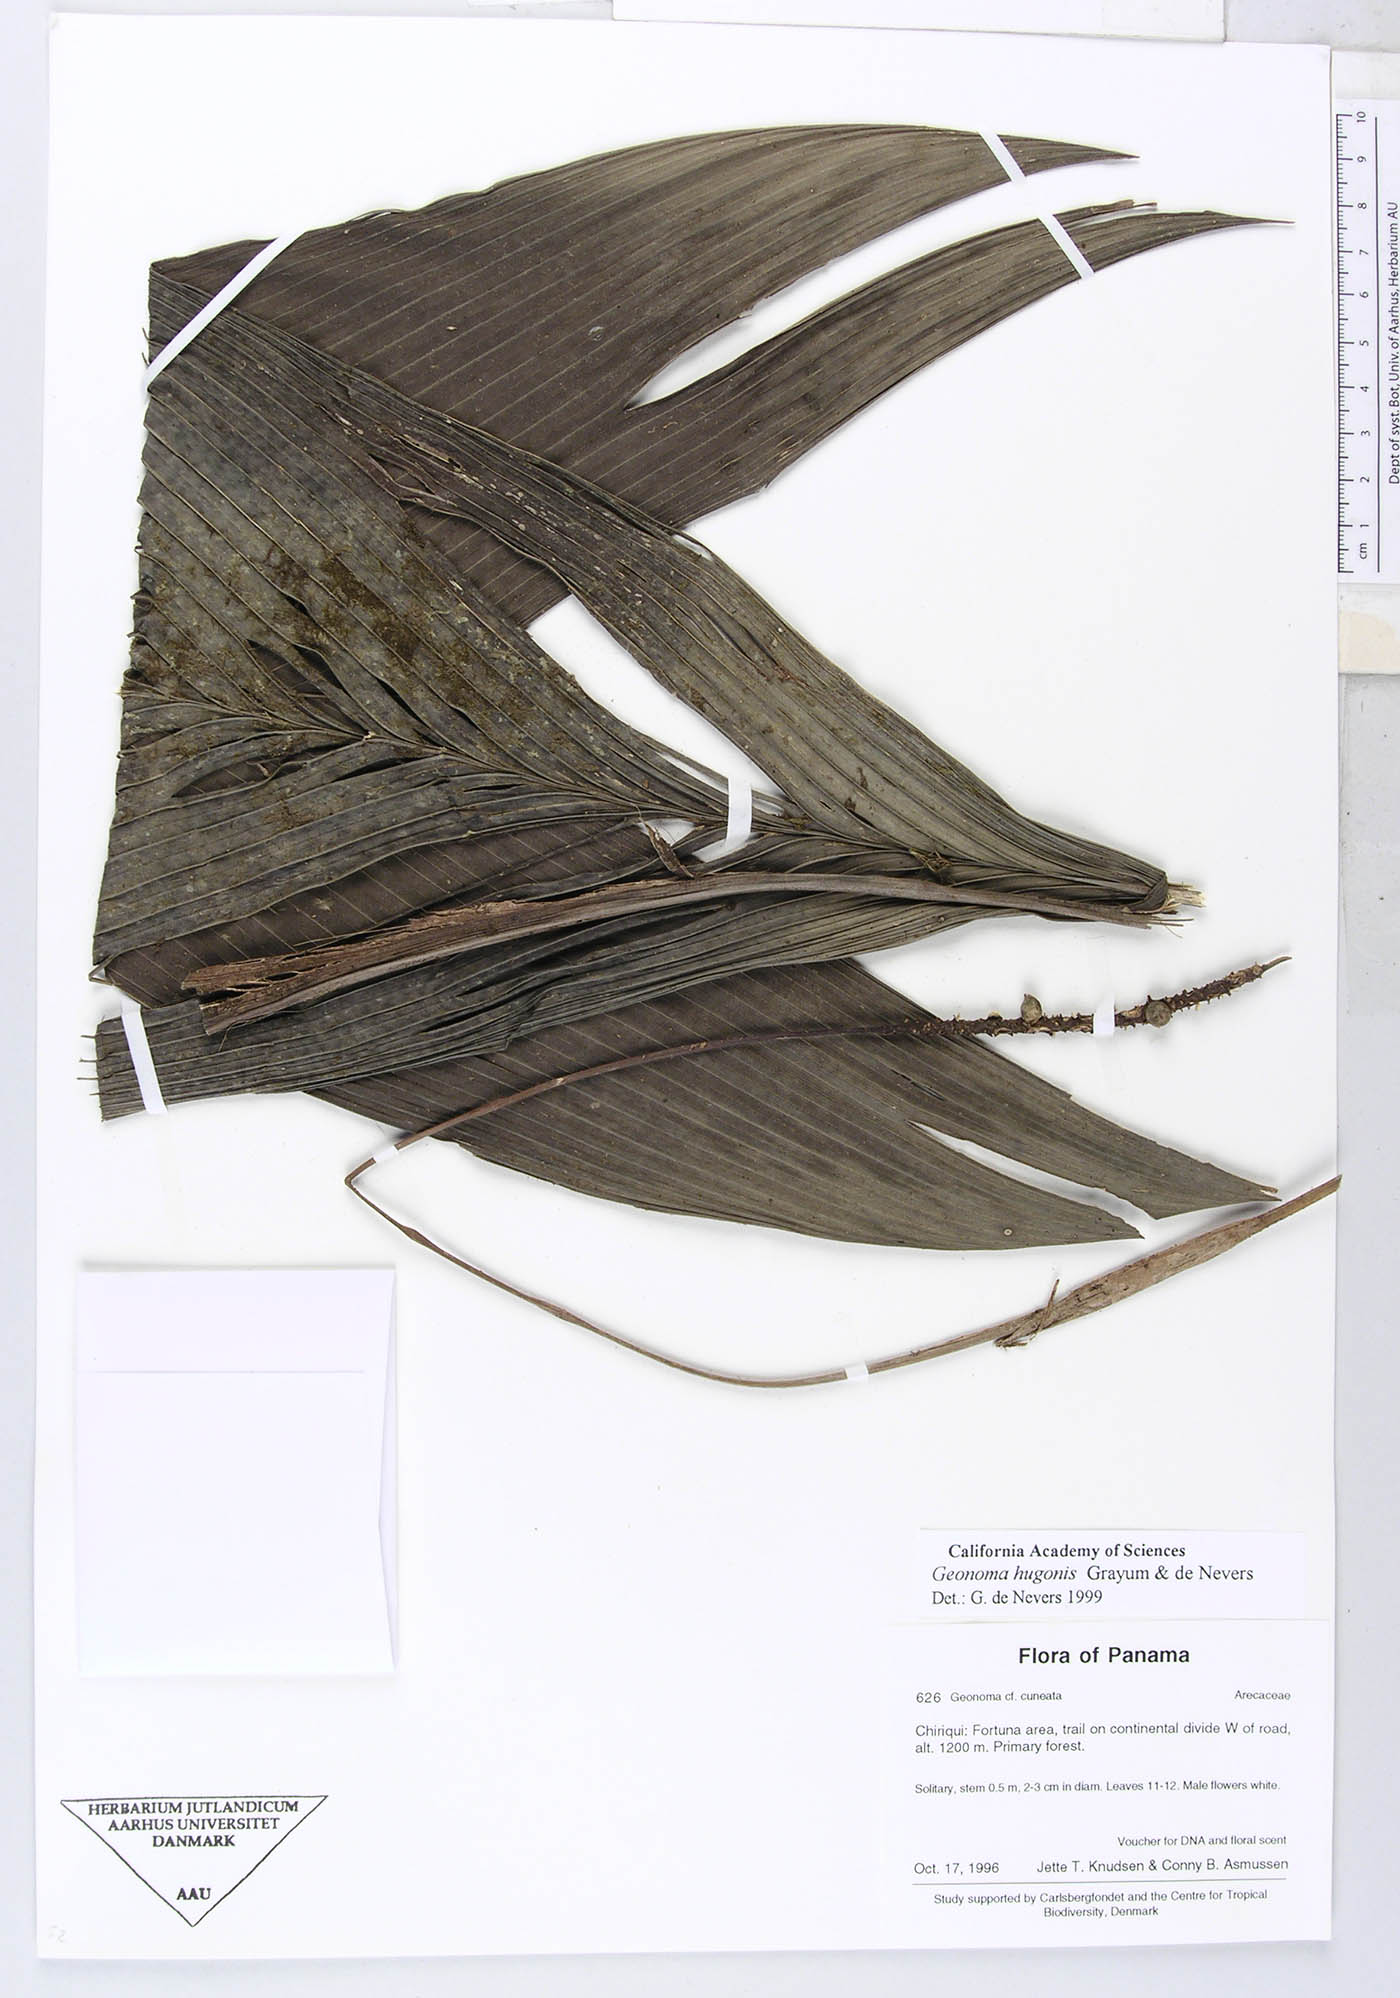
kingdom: Plantae
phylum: Tracheophyta
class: Liliopsida
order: Arecales
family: Arecaceae
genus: Geonoma
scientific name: Geonoma cuneata
